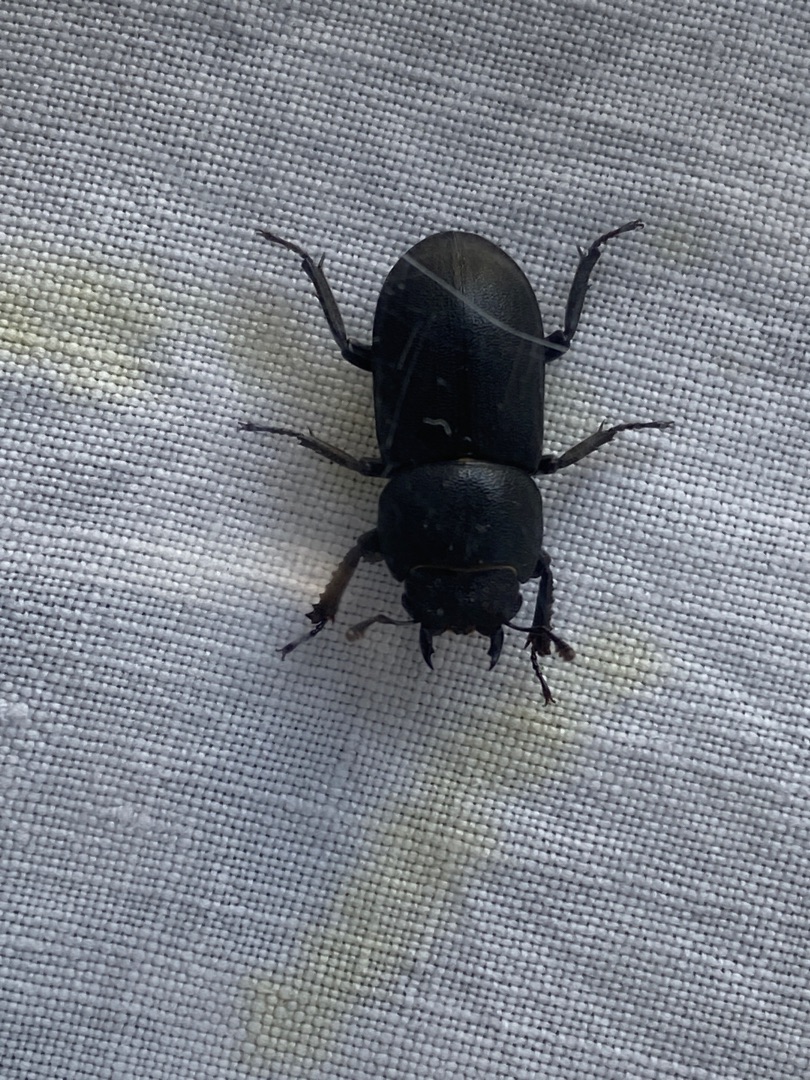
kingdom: Animalia
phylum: Arthropoda
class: Insecta
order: Coleoptera
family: Lucanidae
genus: Dorcus
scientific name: Dorcus parallelipipedus
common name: Bøghjort
